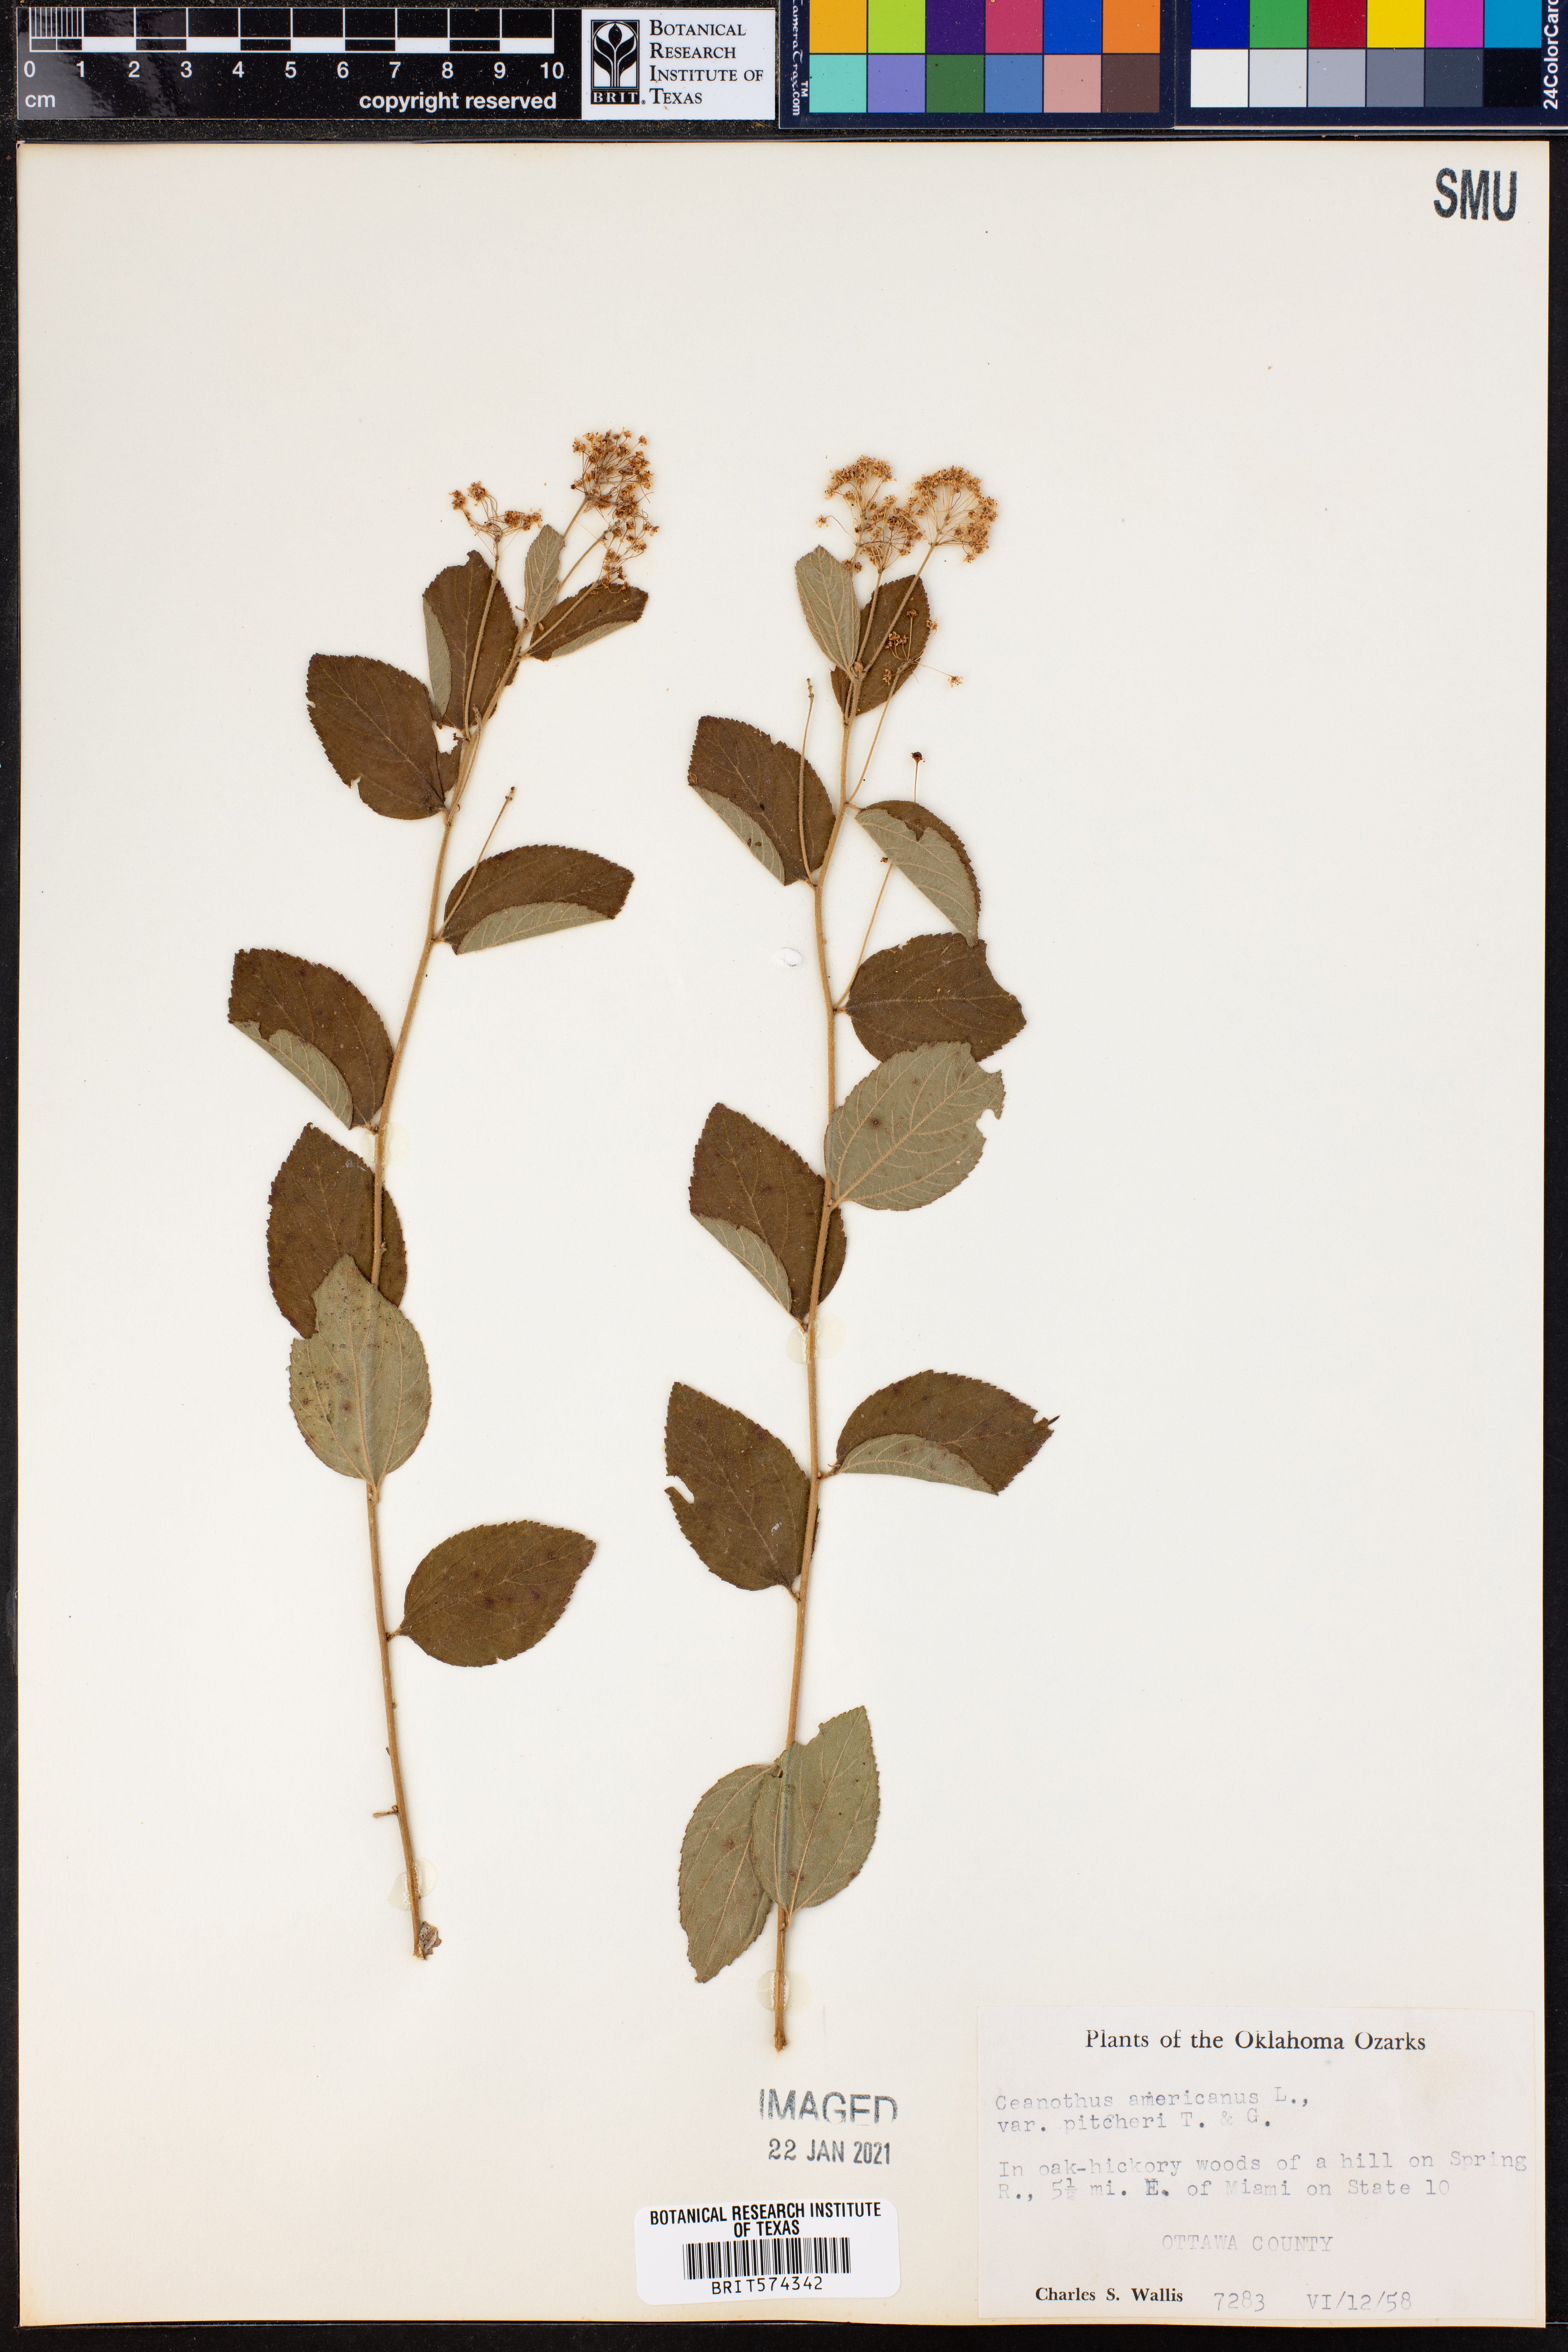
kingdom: Plantae
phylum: Tracheophyta
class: Magnoliopsida
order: Rosales
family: Rhamnaceae
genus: Ceanothus
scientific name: Ceanothus americanus
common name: Redroot
